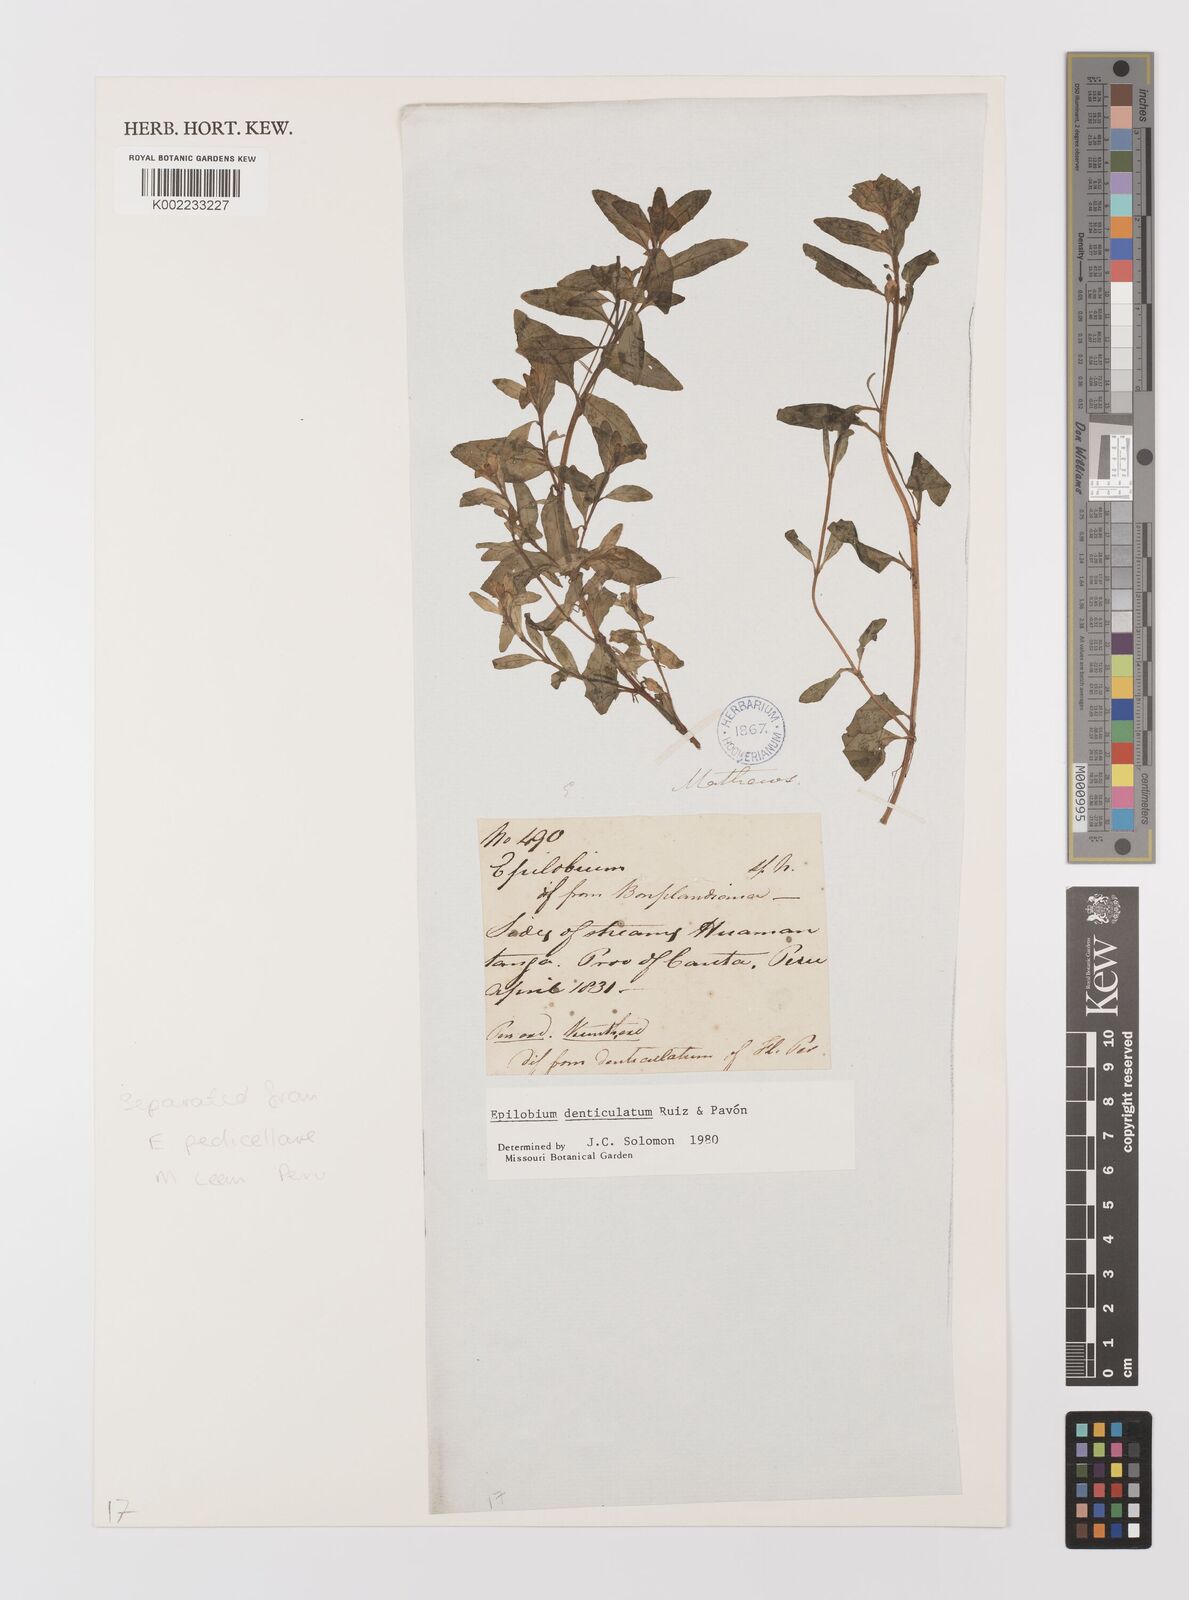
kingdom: Plantae
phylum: Tracheophyta
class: Magnoliopsida
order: Myrtales
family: Onagraceae
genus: Epilobium
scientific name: Epilobium denticulatum
